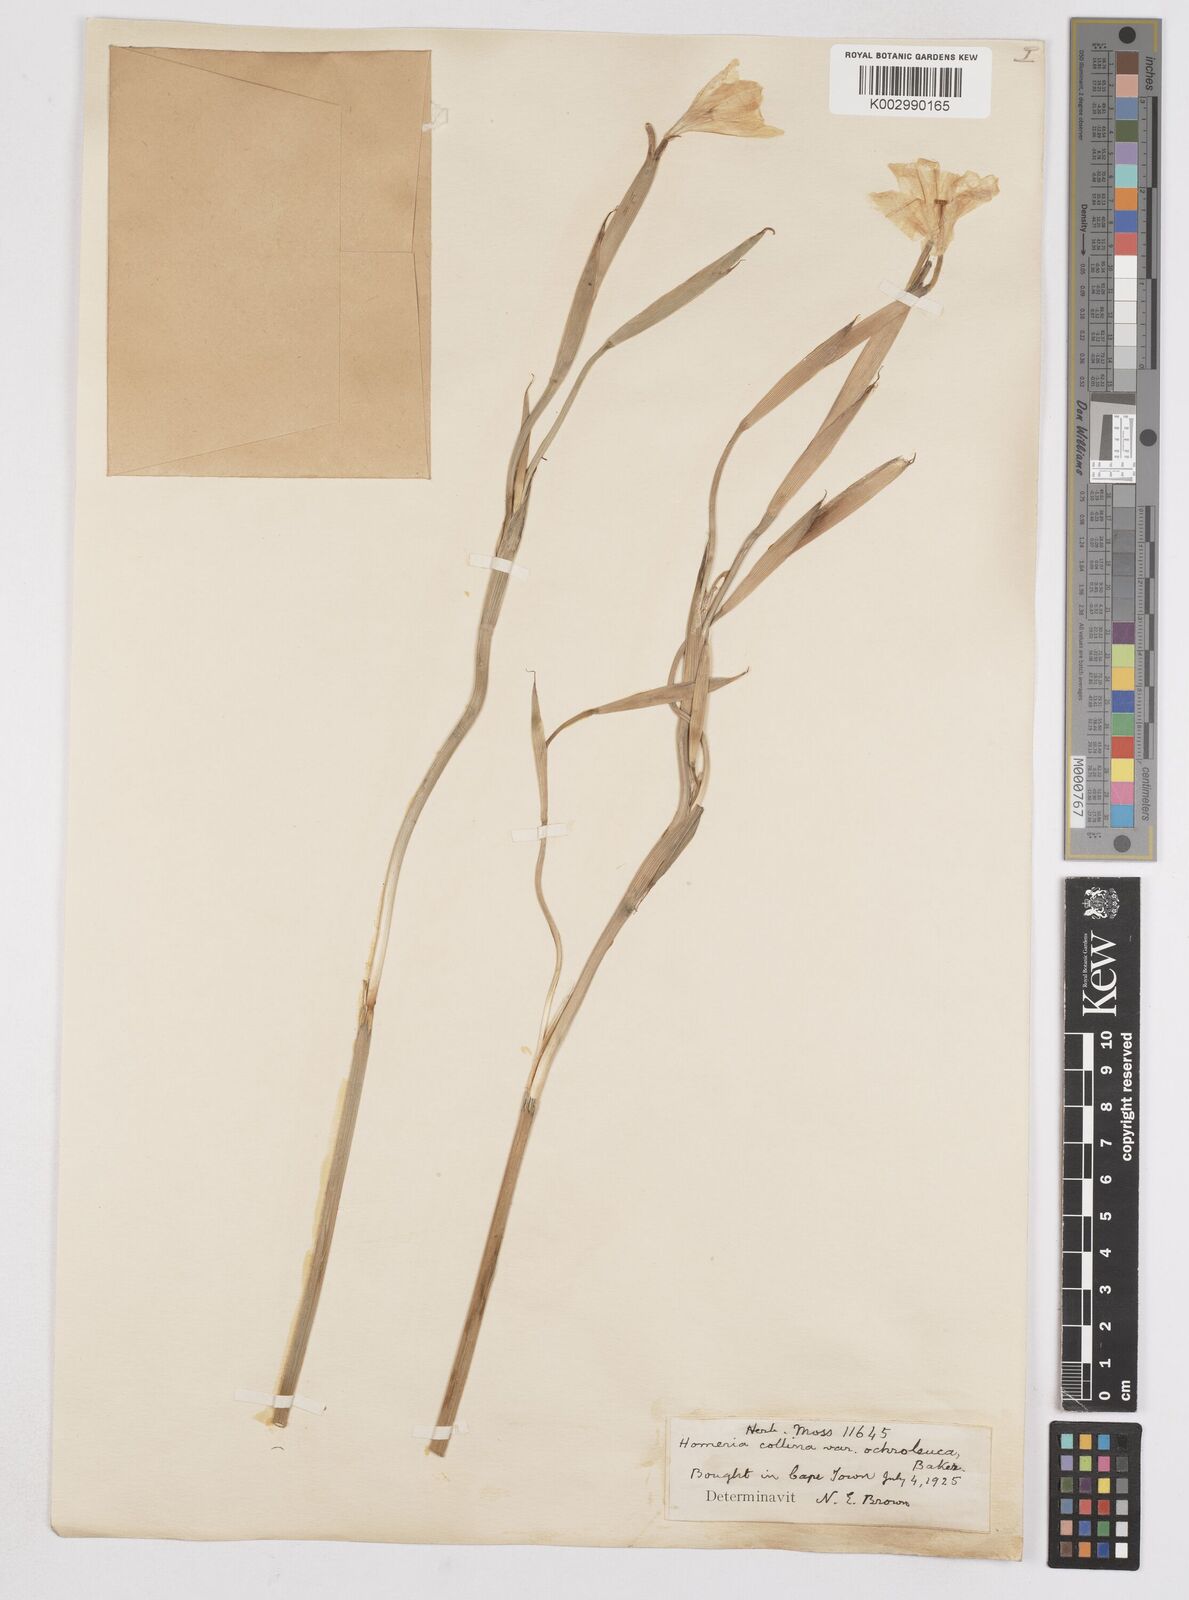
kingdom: Plantae
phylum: Tracheophyta
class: Liliopsida
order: Asparagales
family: Iridaceae
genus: Moraea
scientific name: Moraea collina
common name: Cape-tulip
